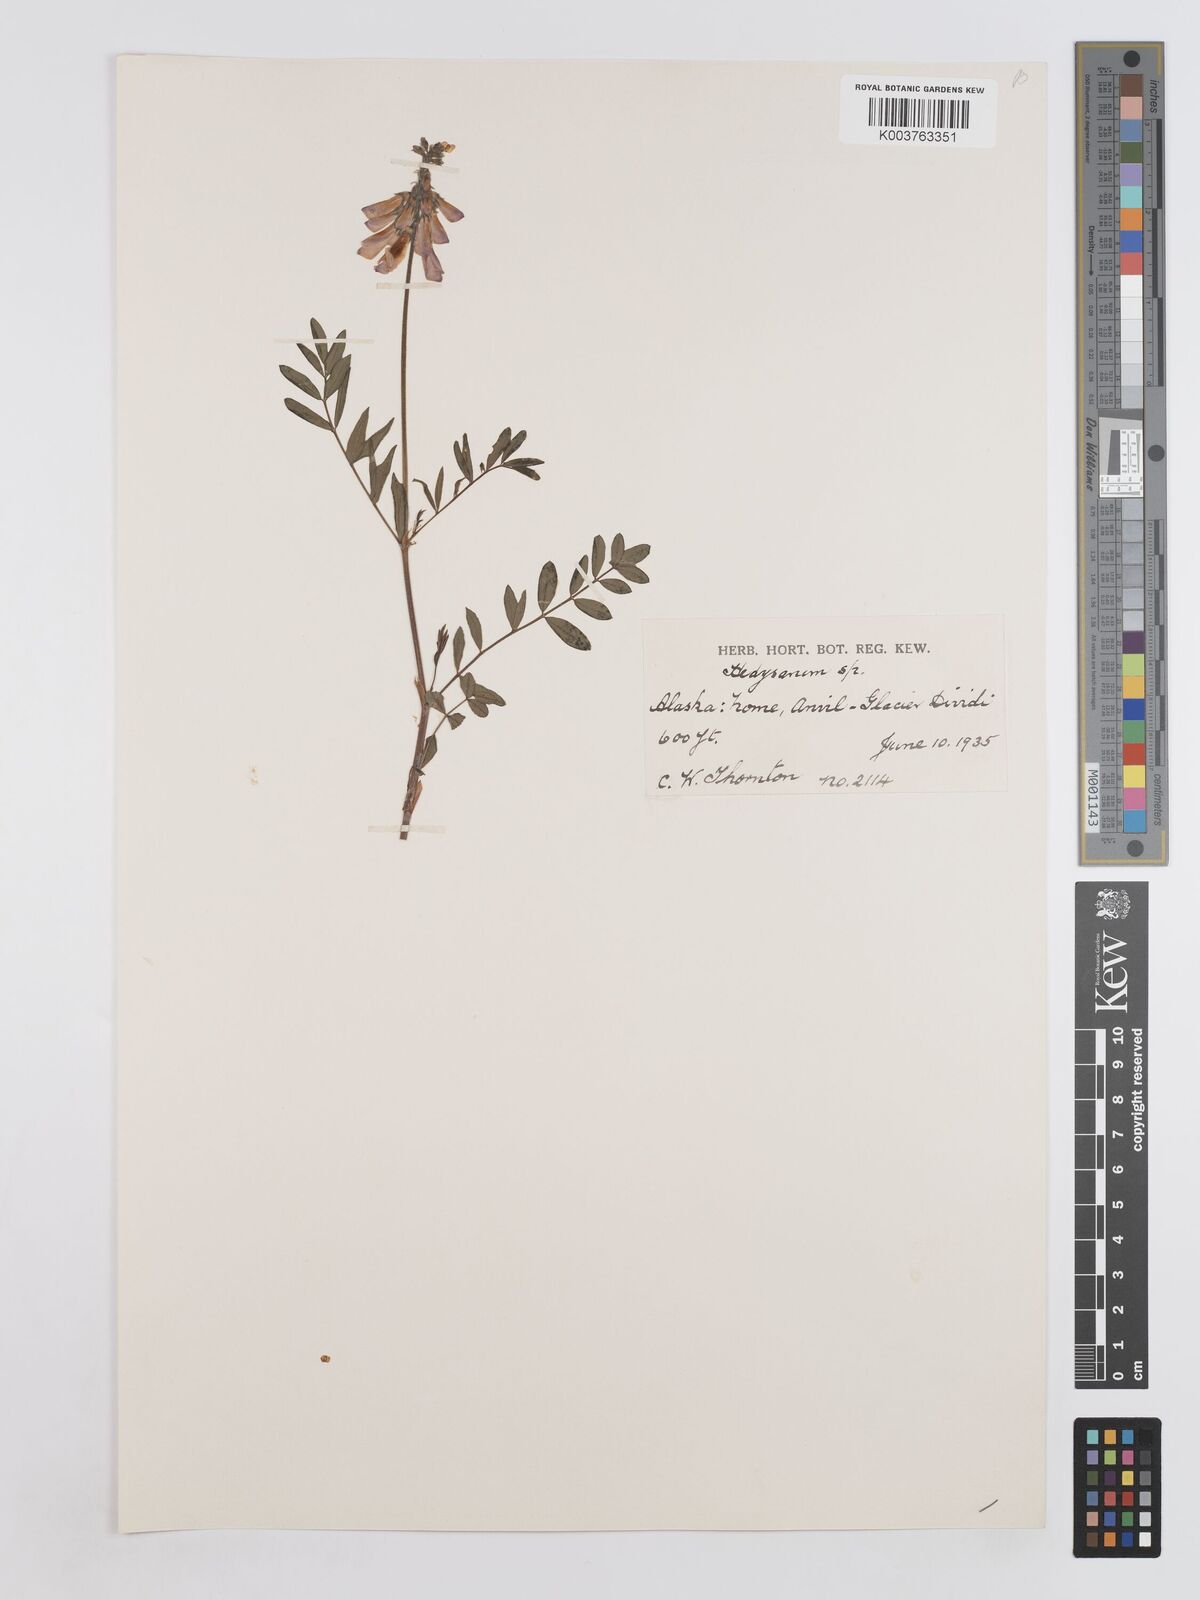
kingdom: Plantae
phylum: Tracheophyta
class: Magnoliopsida
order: Fabales
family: Fabaceae
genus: Hedysarum
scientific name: Hedysarum
